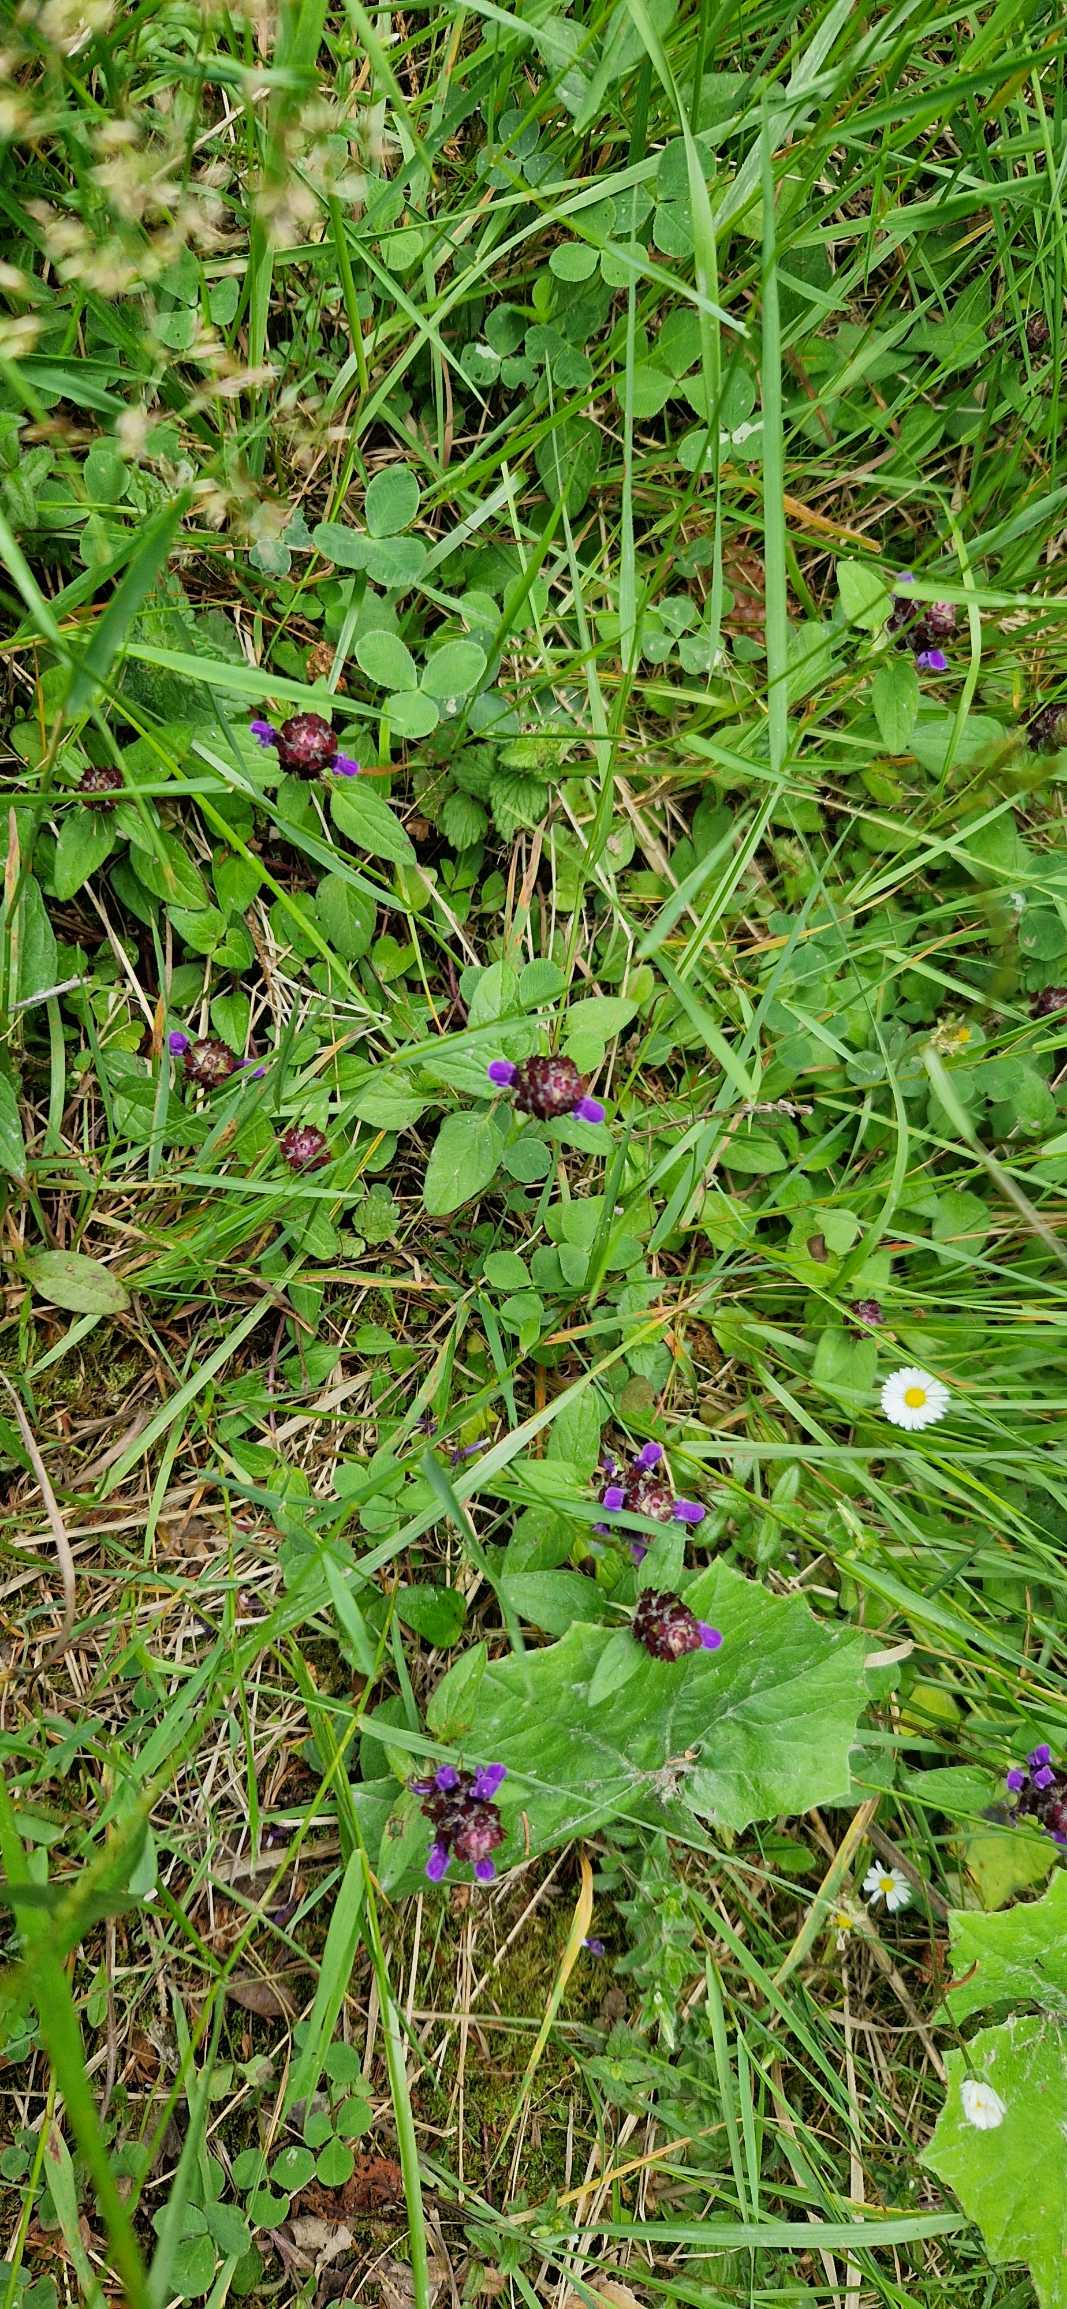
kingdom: Plantae
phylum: Tracheophyta
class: Magnoliopsida
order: Lamiales
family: Lamiaceae
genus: Prunella
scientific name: Prunella vulgaris
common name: Almindelig brunelle
